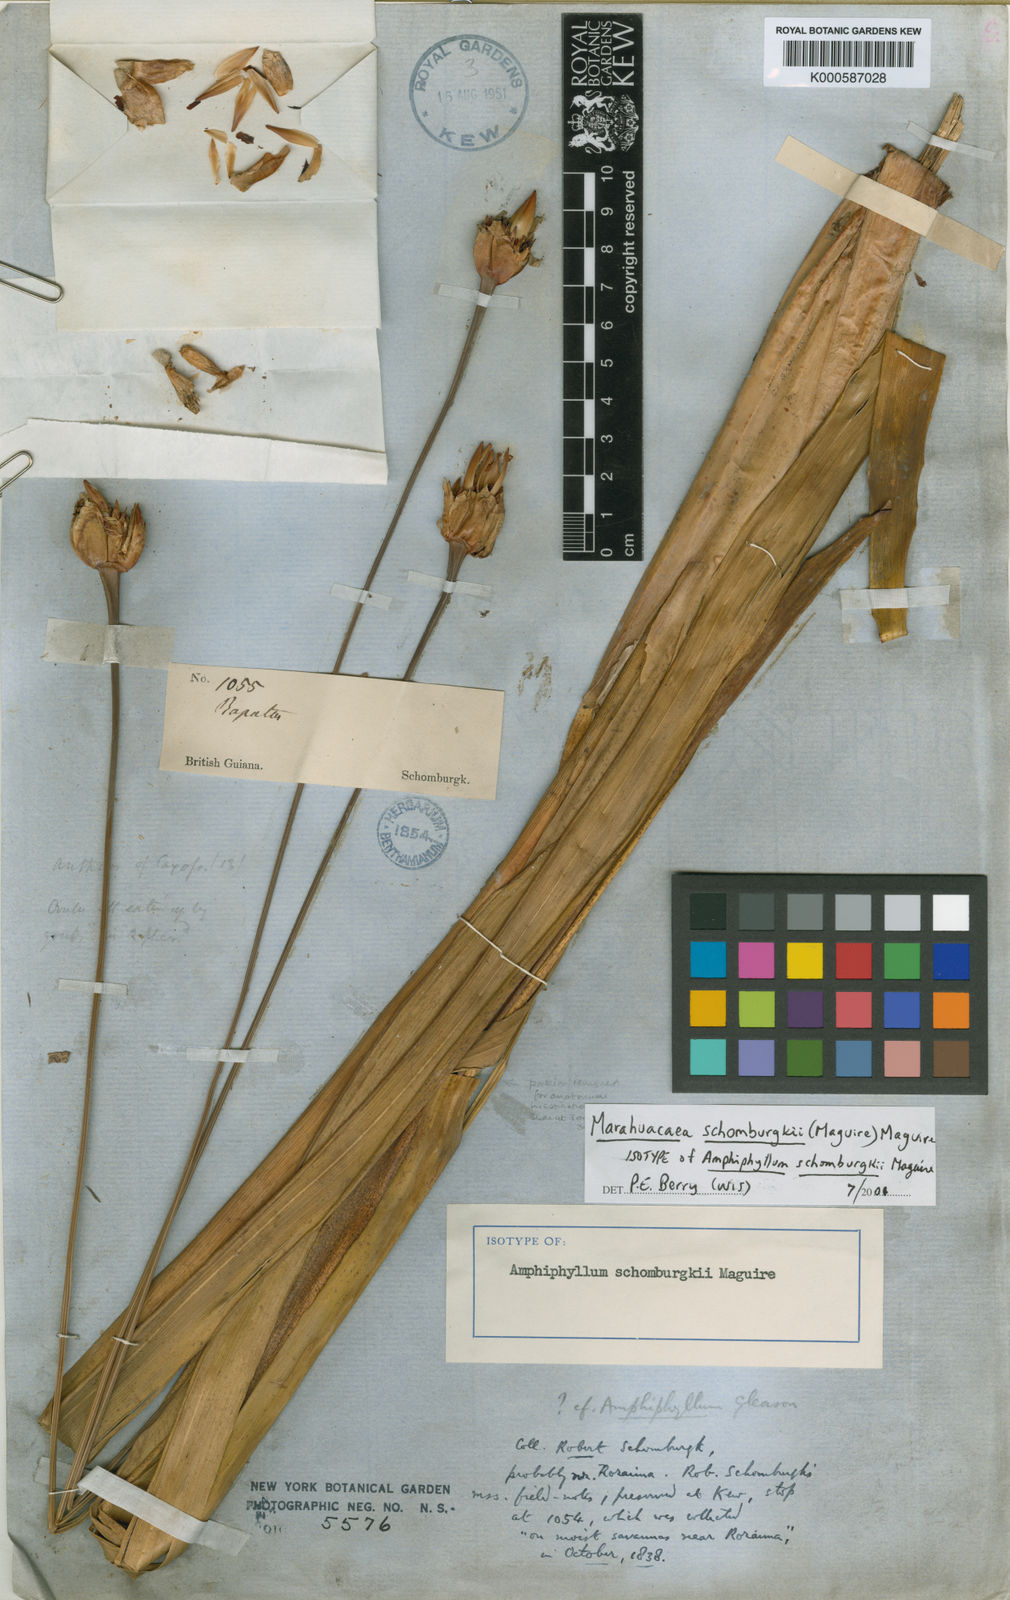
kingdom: Plantae
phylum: Tracheophyta
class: Liliopsida
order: Poales
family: Rapateaceae
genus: Marahuacaea
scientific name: Marahuacaea schomburgkii
